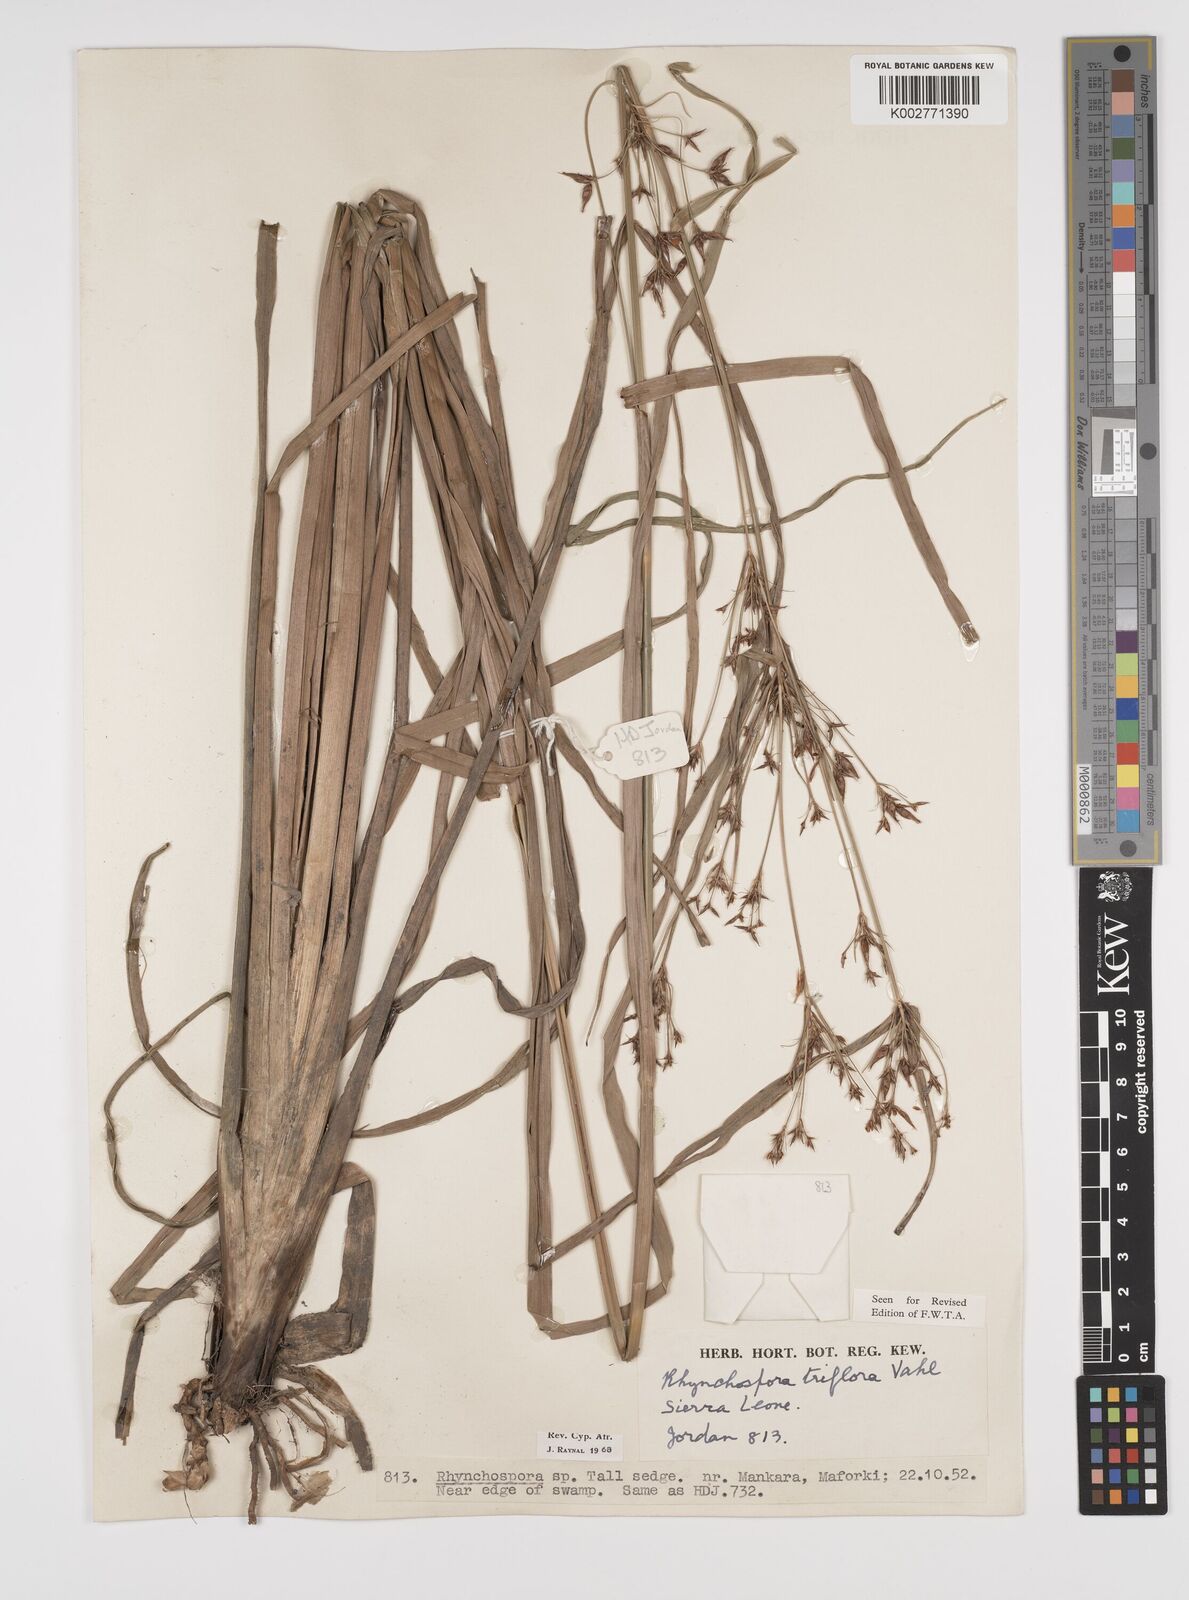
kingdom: Plantae
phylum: Tracheophyta
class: Liliopsida
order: Poales
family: Cyperaceae
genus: Rhynchospora
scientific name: Rhynchospora triflora
